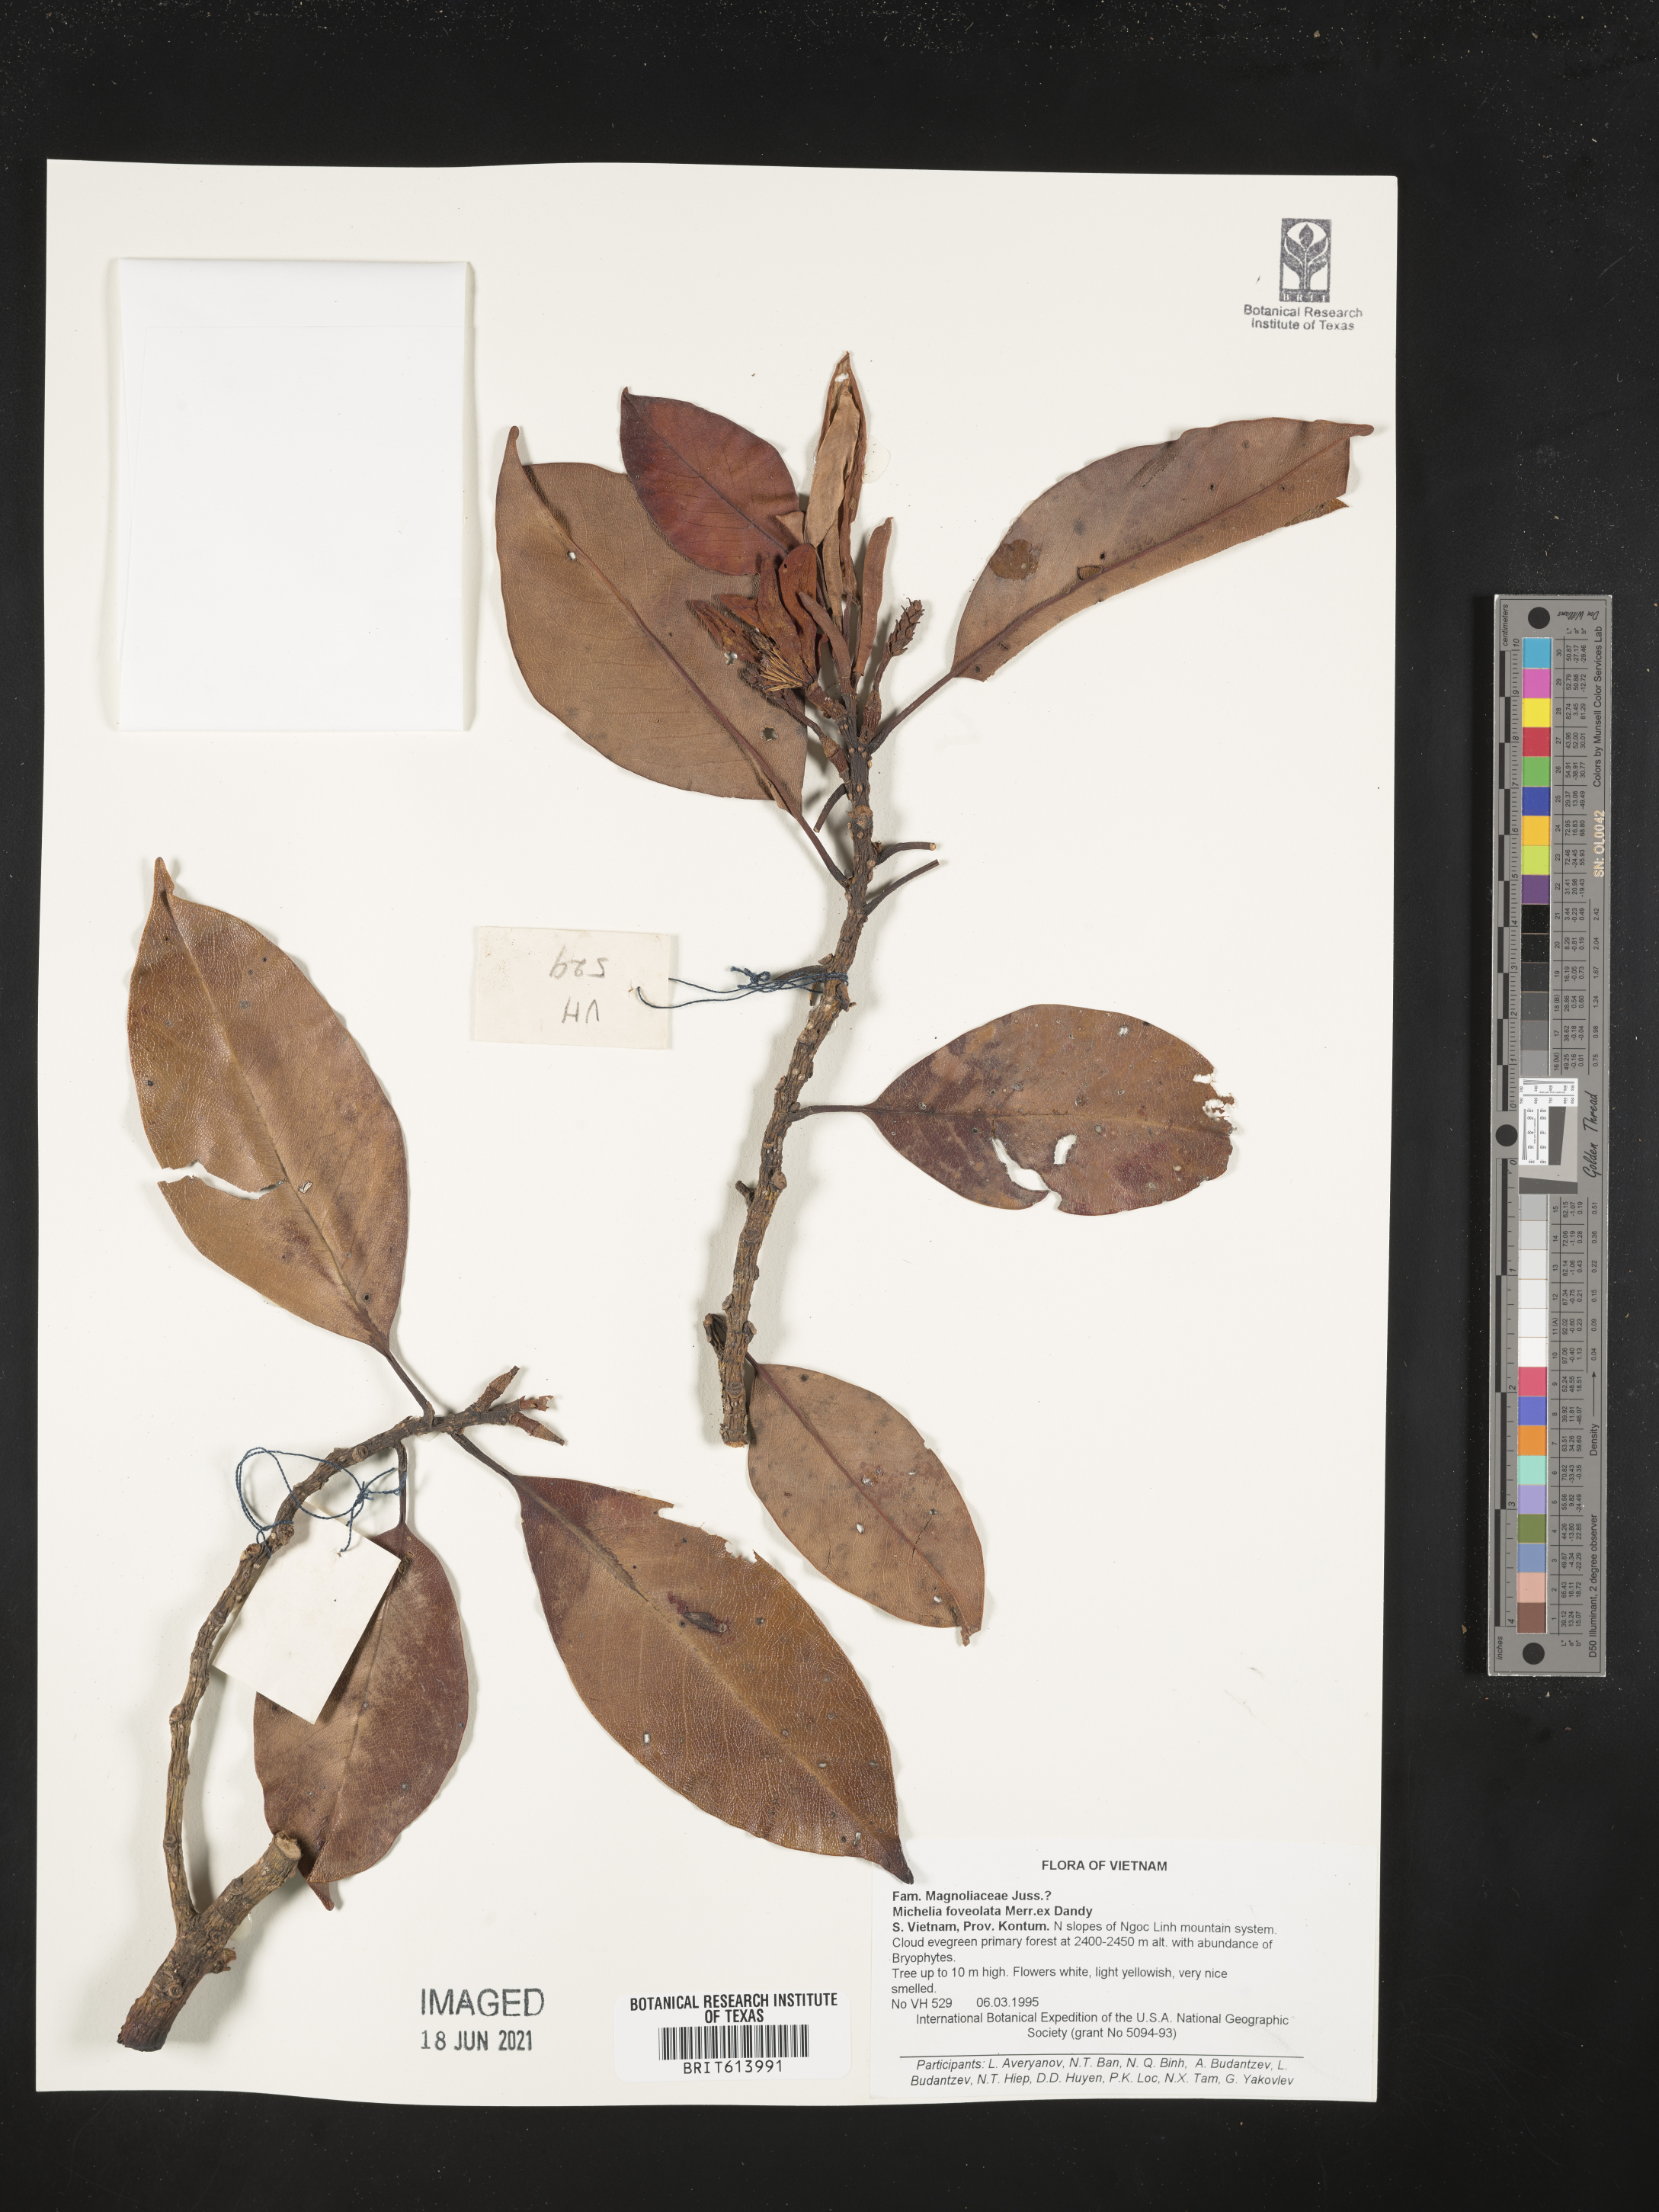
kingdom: Plantae
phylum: Tracheophyta
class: Magnoliopsida
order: Magnoliales
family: Magnoliaceae
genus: Magnolia
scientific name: Magnolia foveolata
